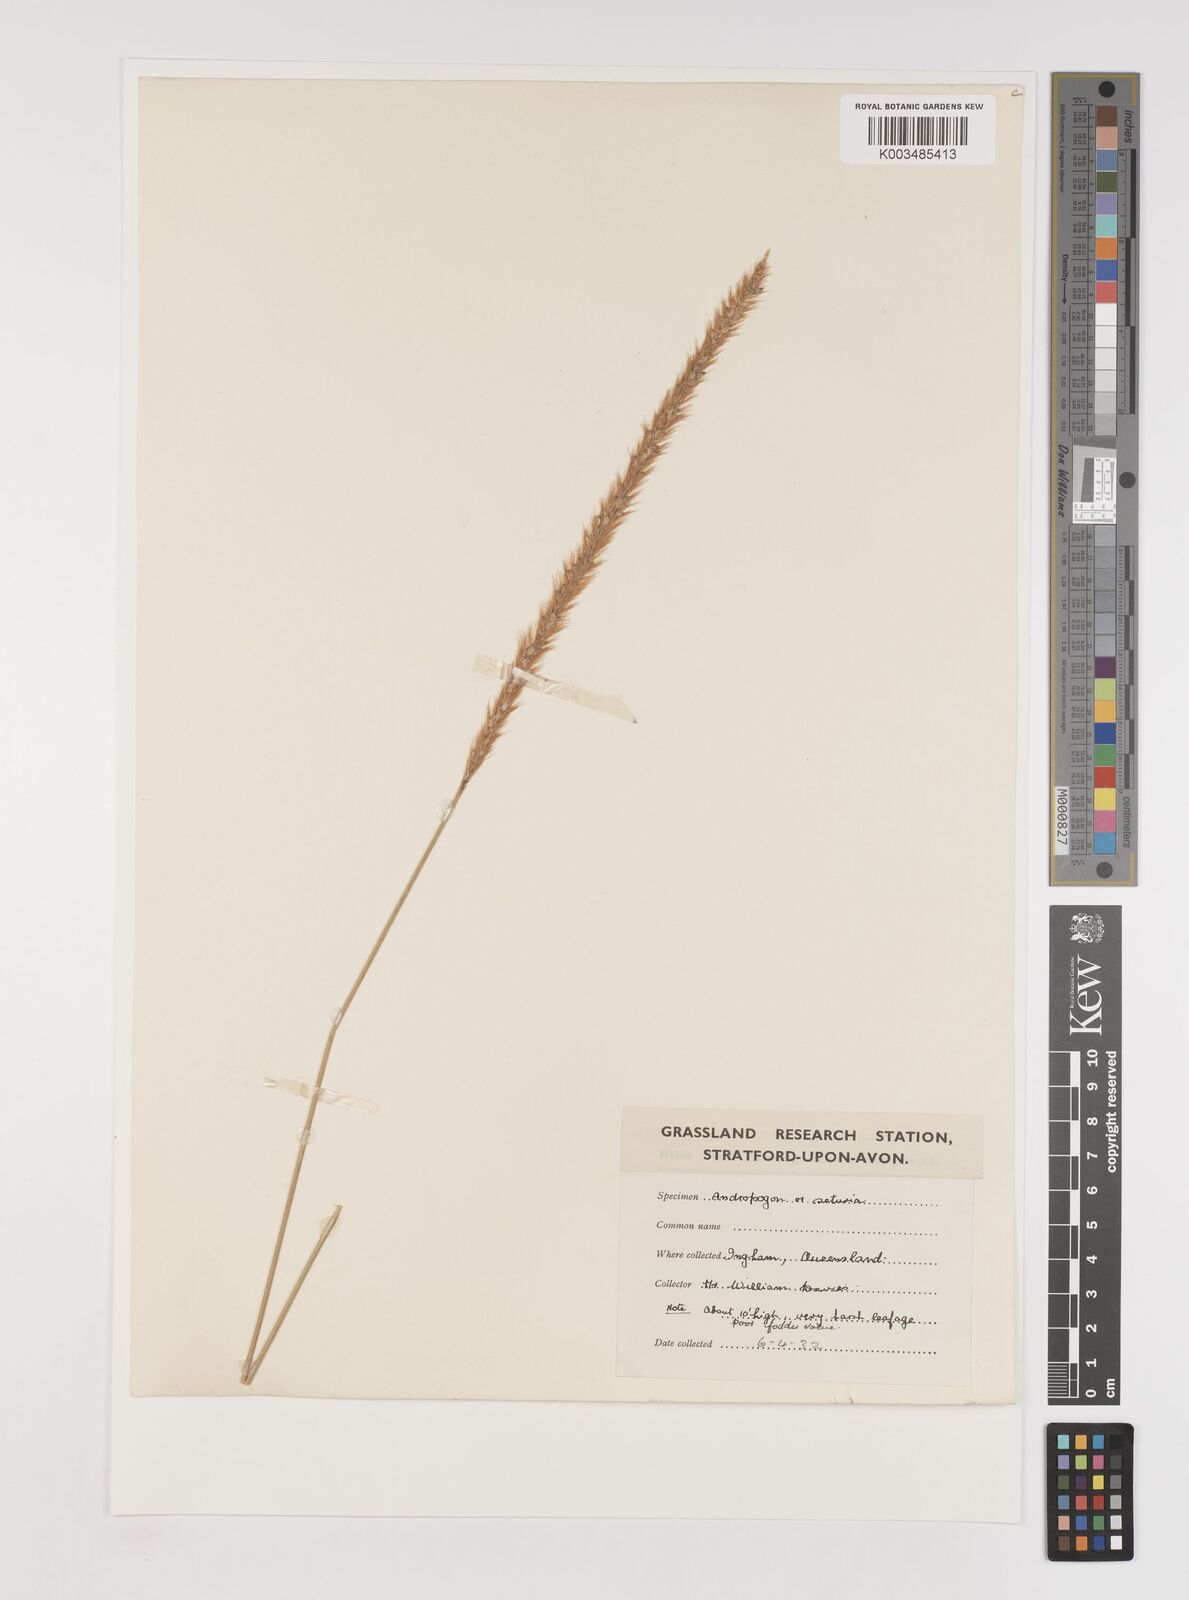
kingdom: Plantae
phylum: Tracheophyta
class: Liliopsida
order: Poales
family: Poaceae
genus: Setaria
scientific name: Setaria pumila
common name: Yellow bristle-grass
